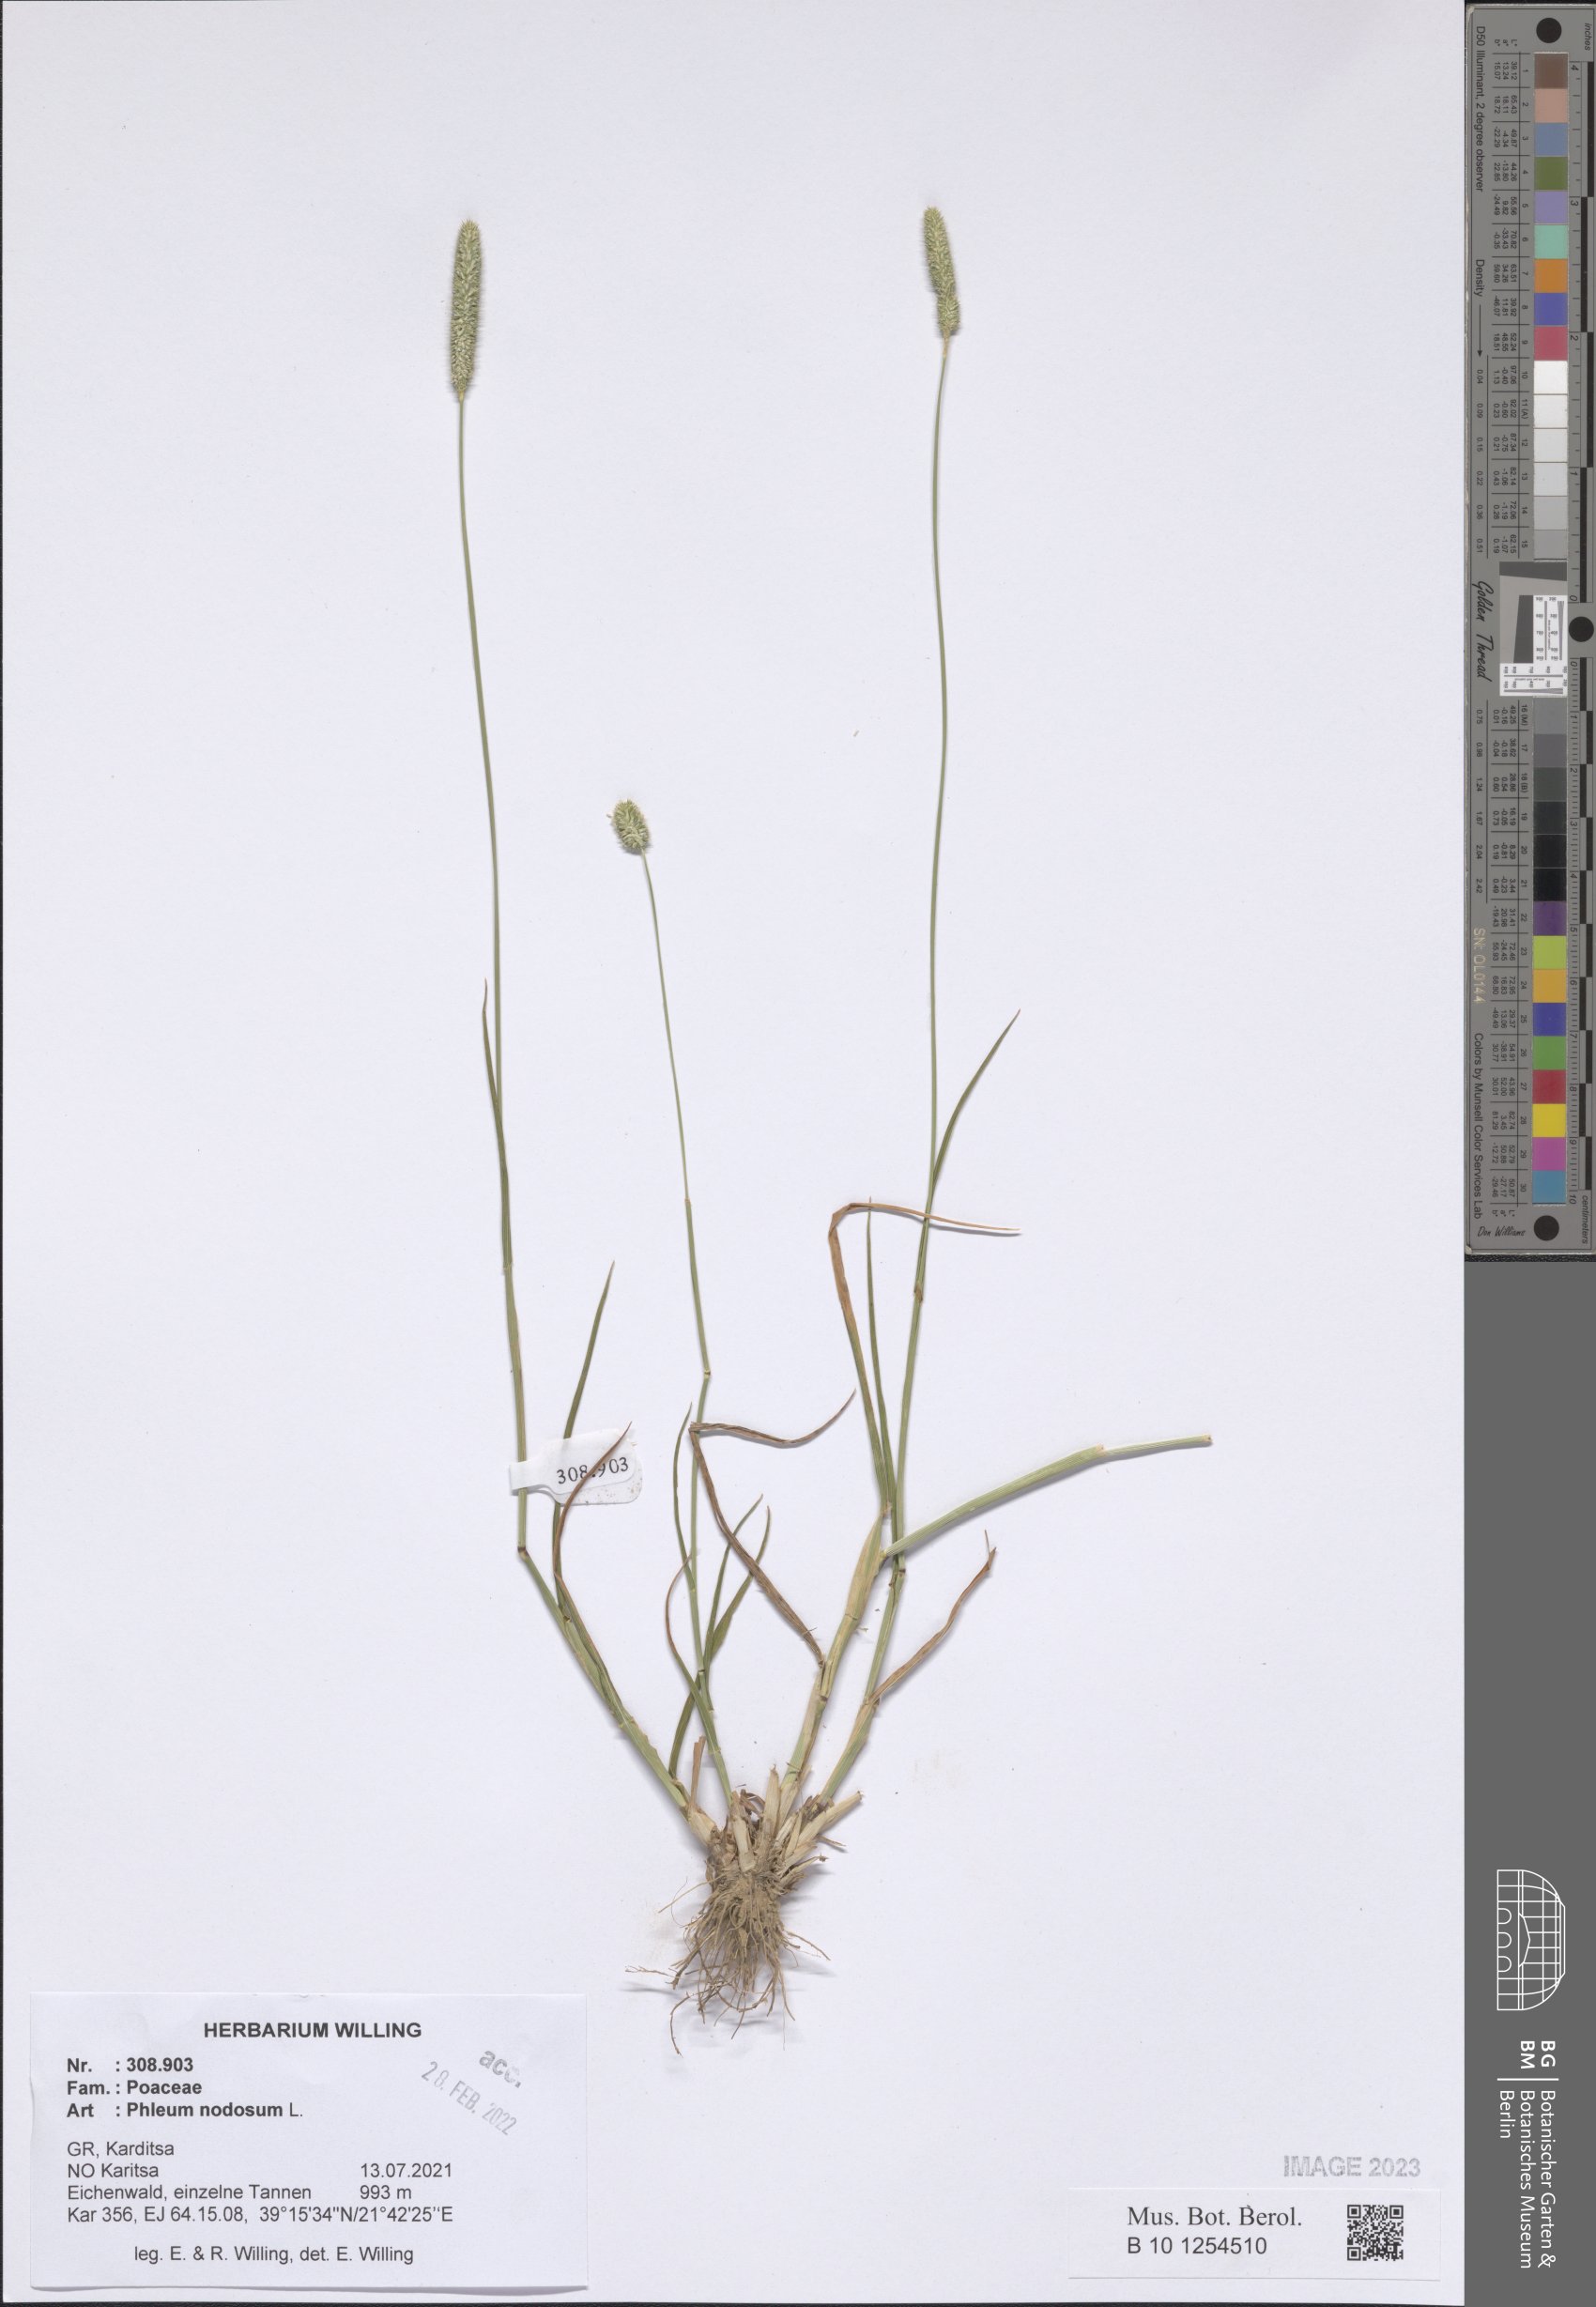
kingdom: Plantae
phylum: Tracheophyta
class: Liliopsida
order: Poales
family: Poaceae
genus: Phleum
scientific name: Phleum pratense
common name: Timothy grass
